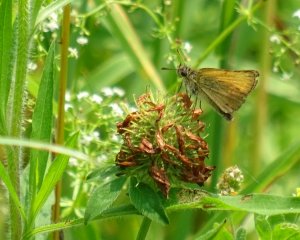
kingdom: Animalia
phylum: Arthropoda
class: Insecta
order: Lepidoptera
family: Hesperiidae
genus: Thymelicus
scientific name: Thymelicus lineola
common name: European Skipper
